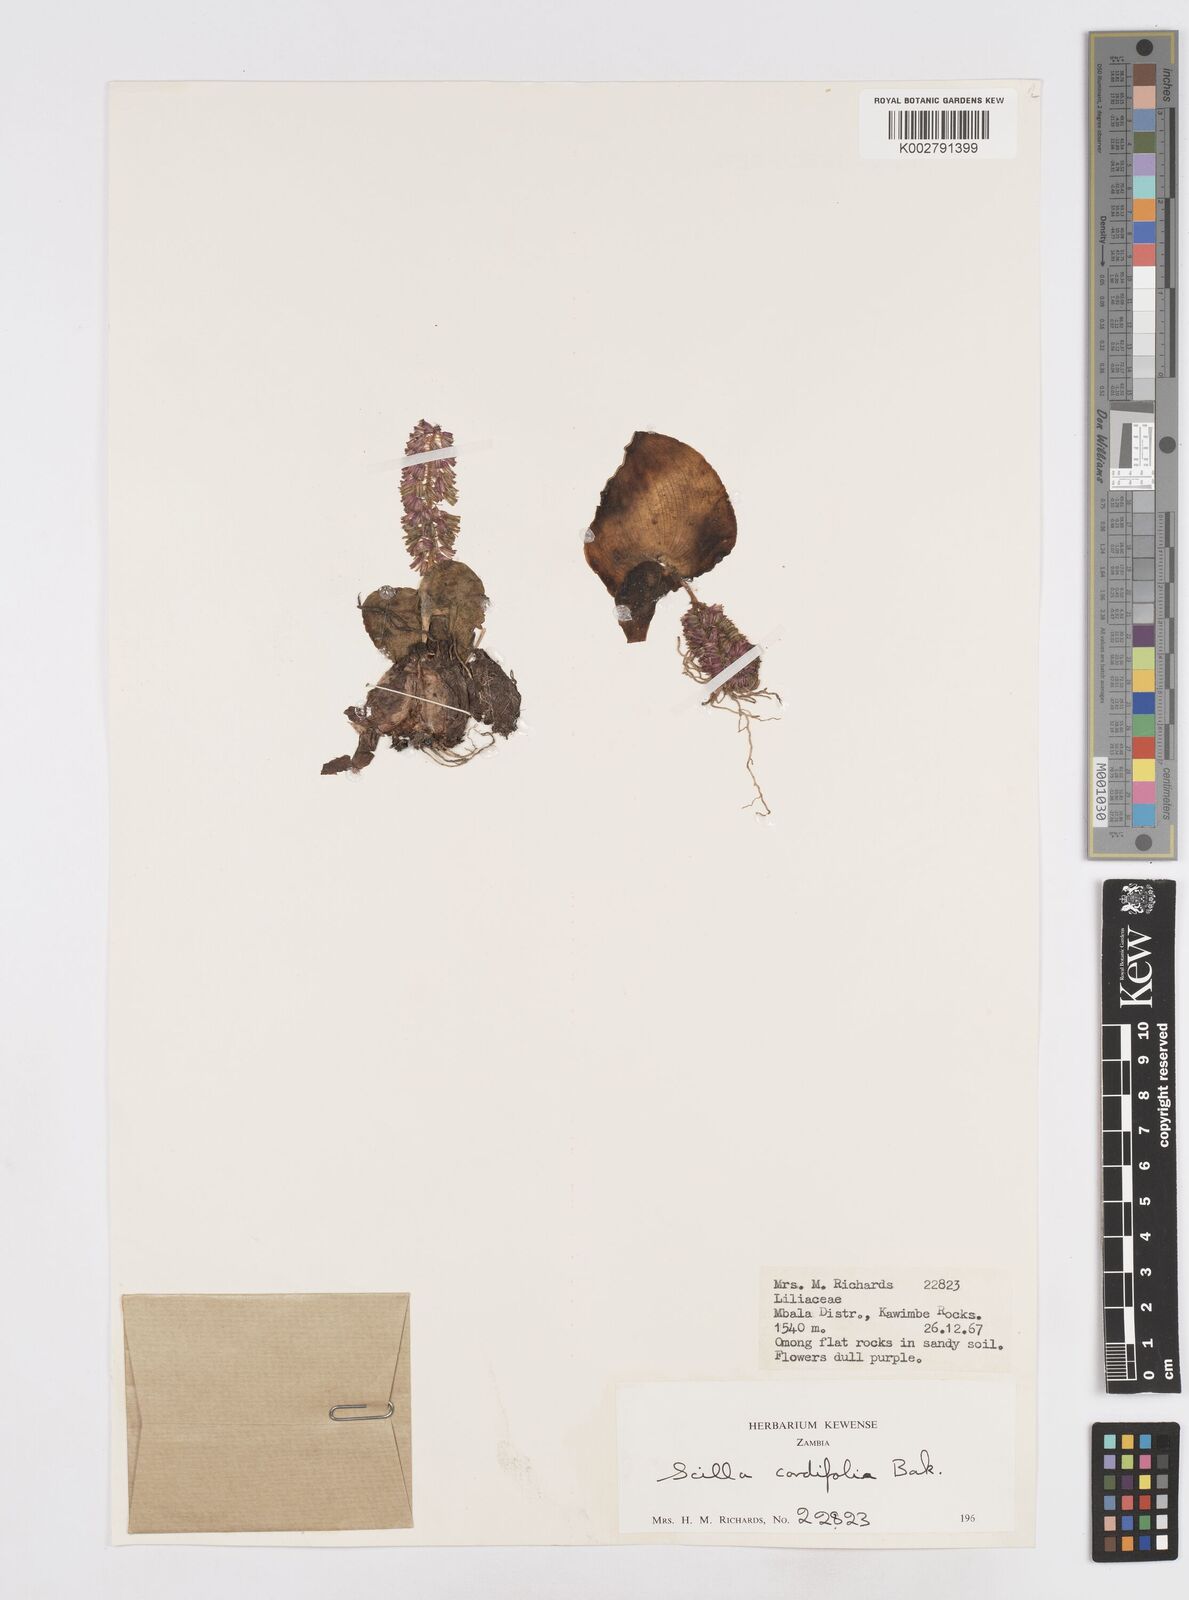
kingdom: Plantae
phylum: Tracheophyta
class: Liliopsida
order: Asparagales
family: Asparagaceae
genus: Ledebouria
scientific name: Ledebouria cordifolia
